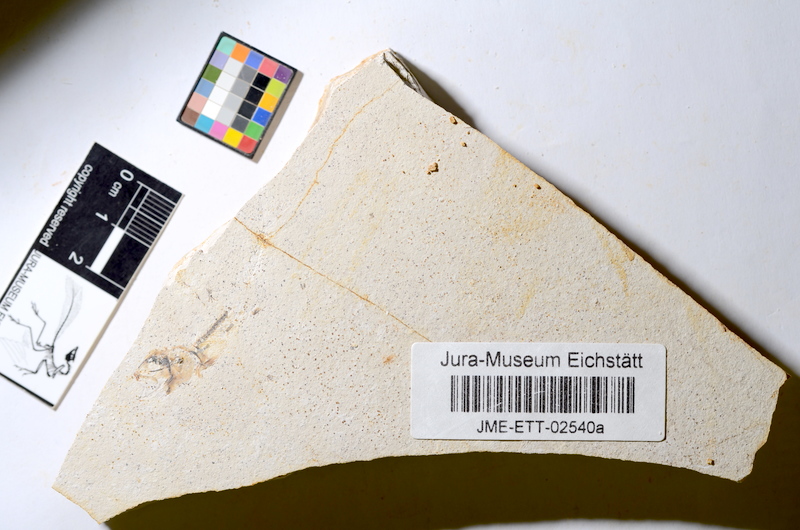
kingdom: Animalia
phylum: Chordata
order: Salmoniformes
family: Orthogonikleithridae
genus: Orthogonikleithrus
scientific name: Orthogonikleithrus hoelli
